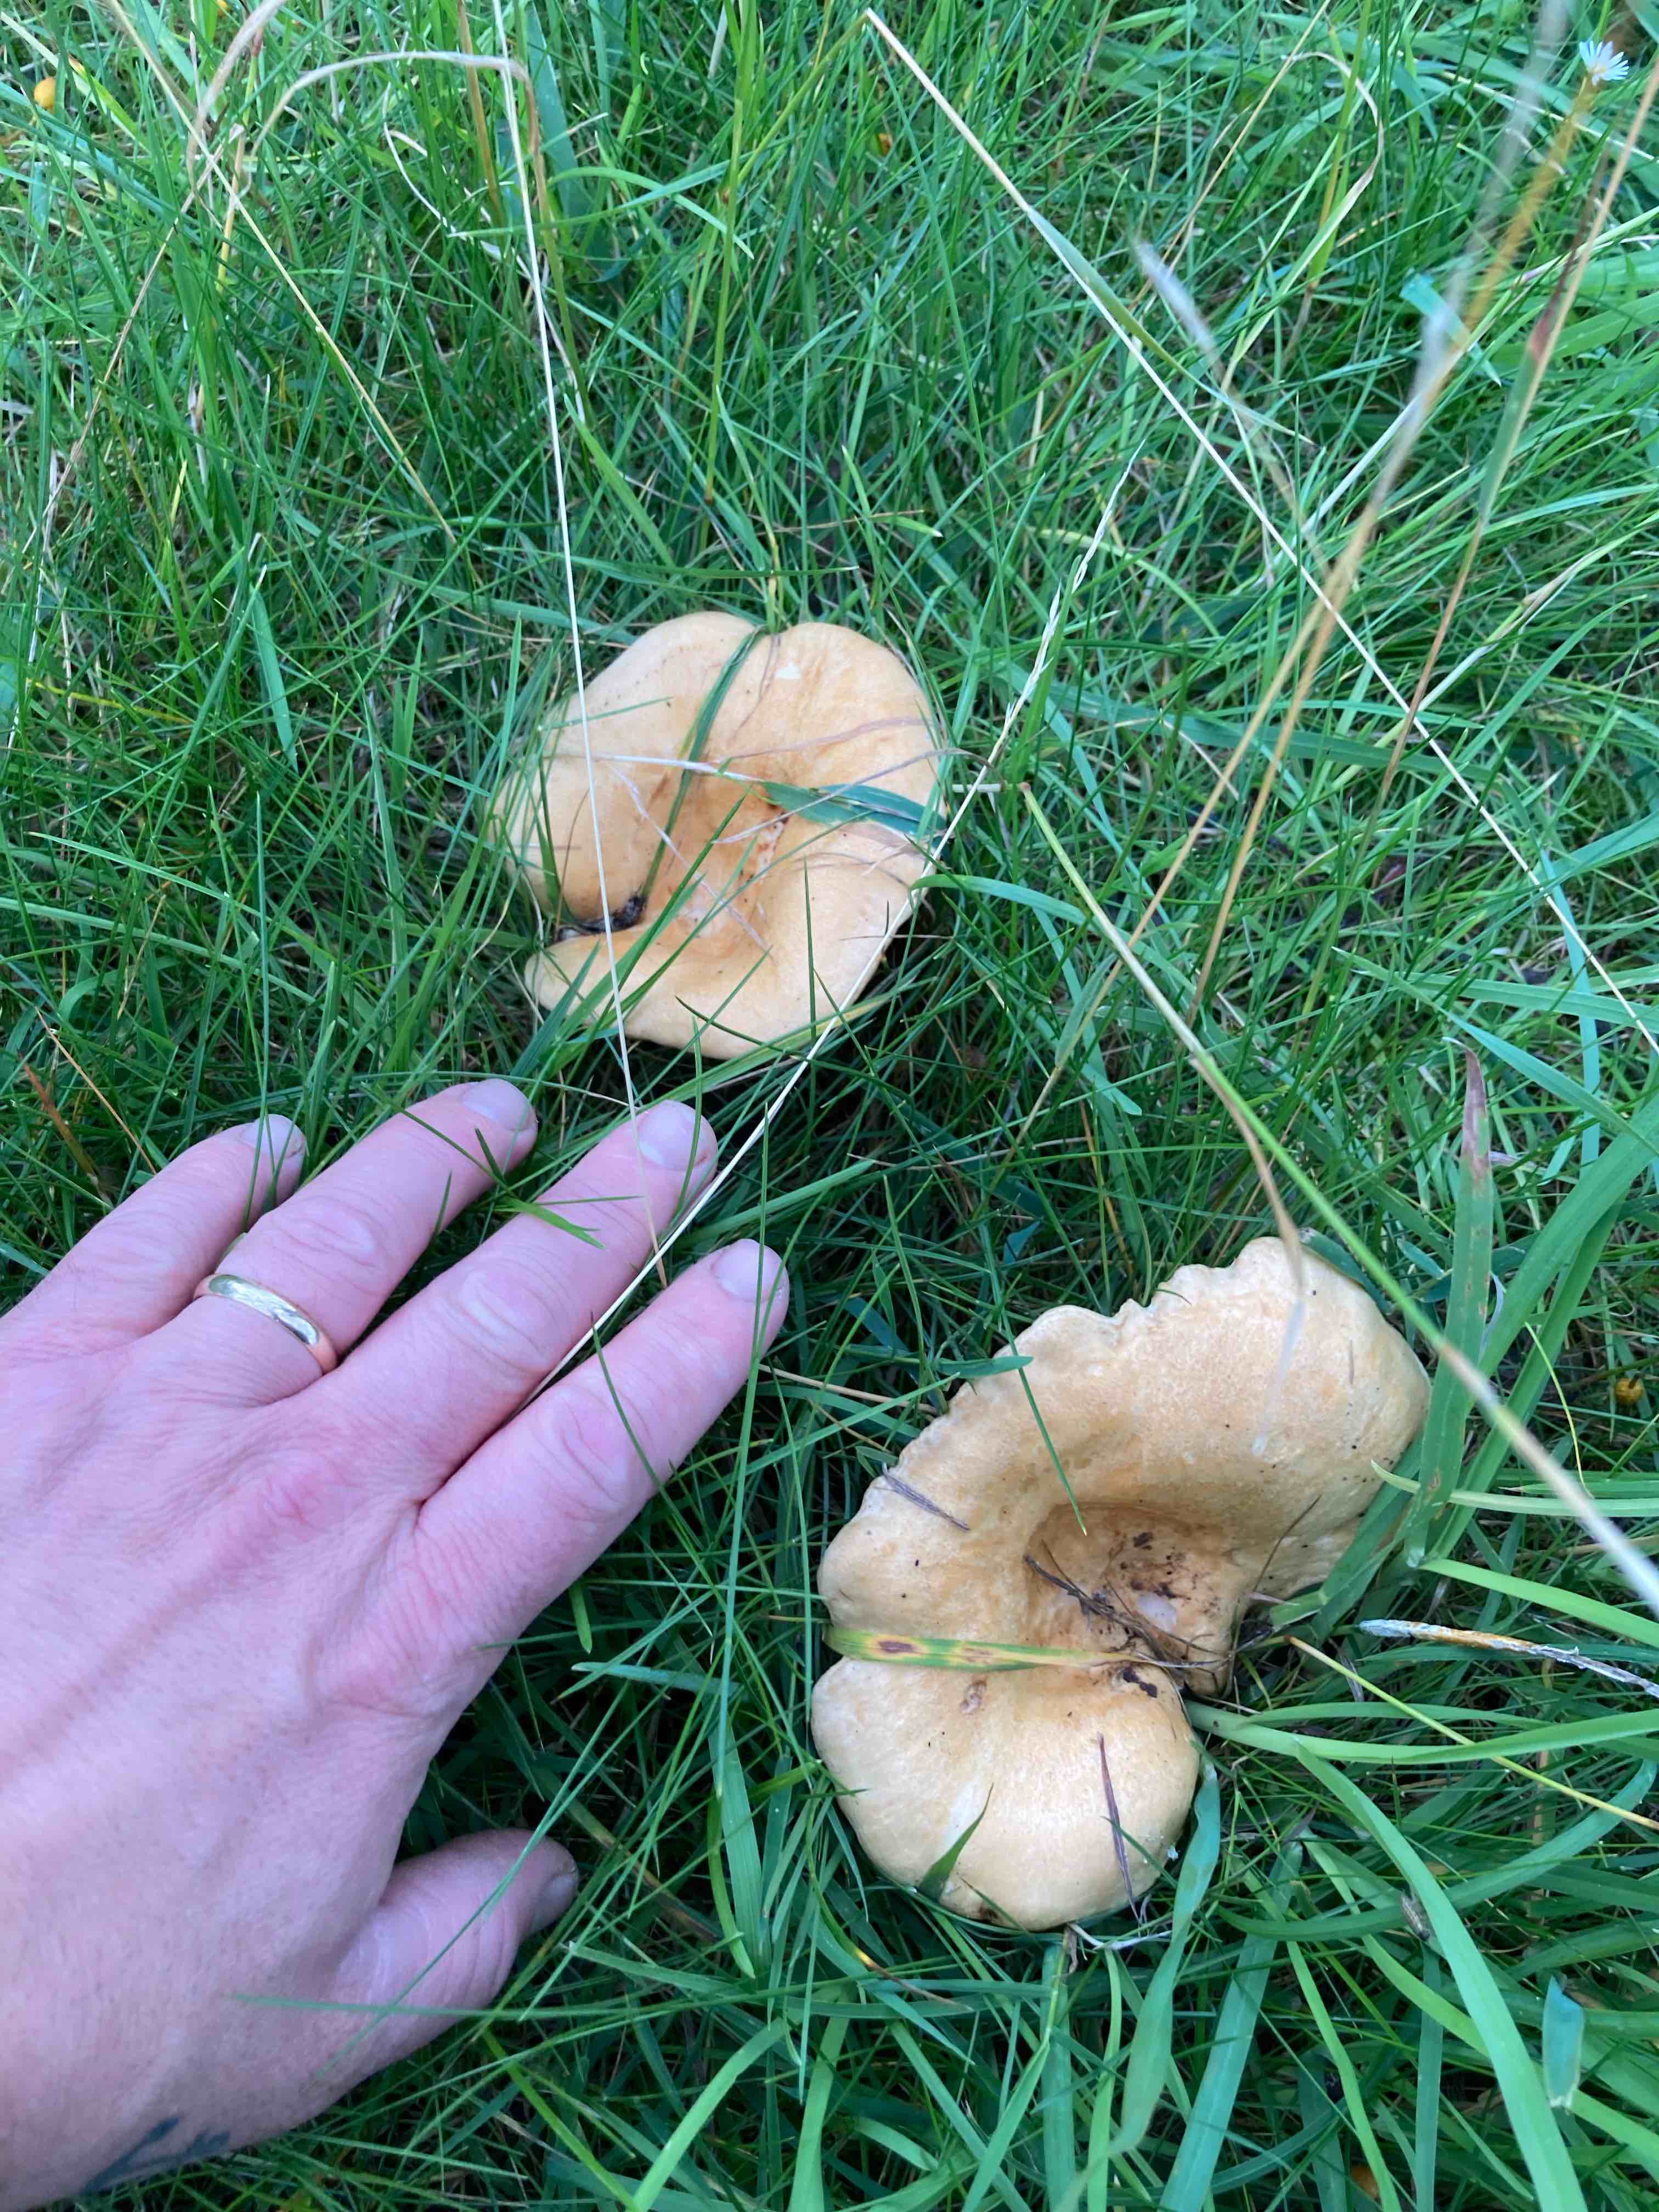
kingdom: Fungi
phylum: Basidiomycota
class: Agaricomycetes
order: Russulales
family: Russulaceae
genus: Lactarius
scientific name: Lactarius
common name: mælkehat
